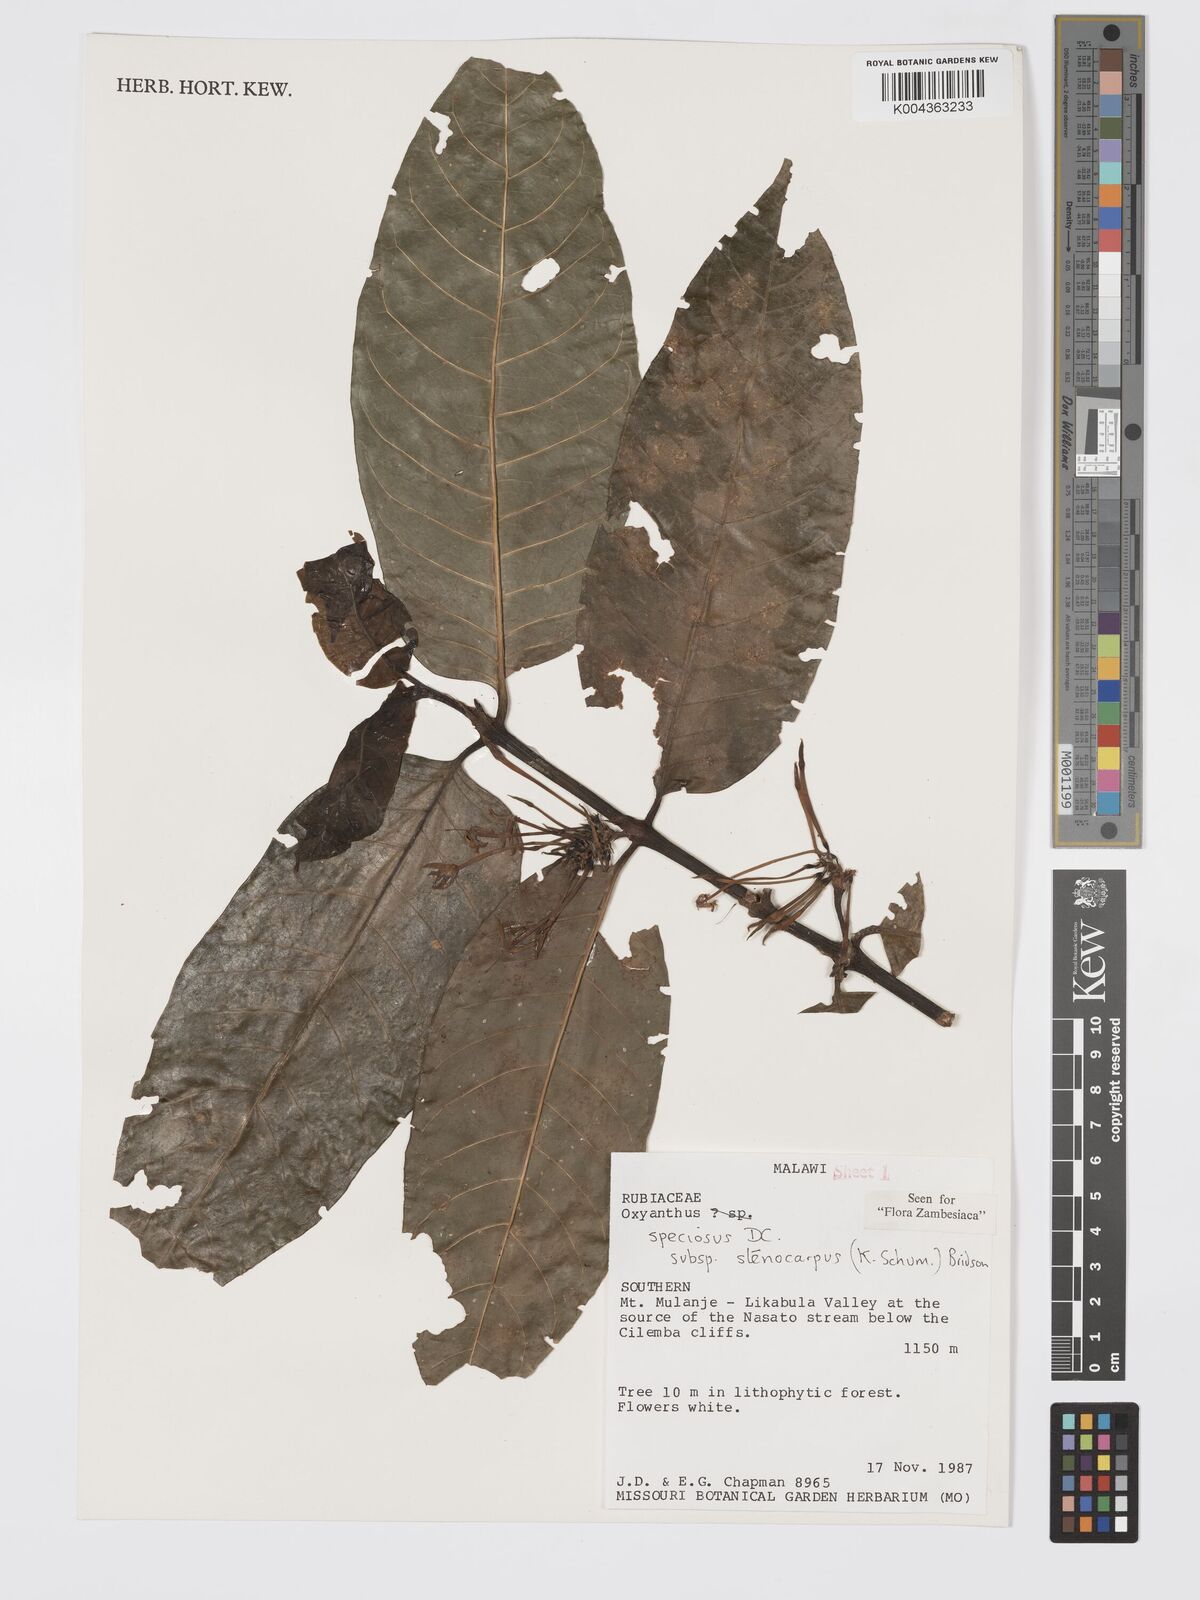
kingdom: Plantae
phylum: Tracheophyta
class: Magnoliopsida
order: Gentianales
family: Rubiaceae
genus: Oxyanthus
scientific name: Oxyanthus speciosus
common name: Whipstick loquat
